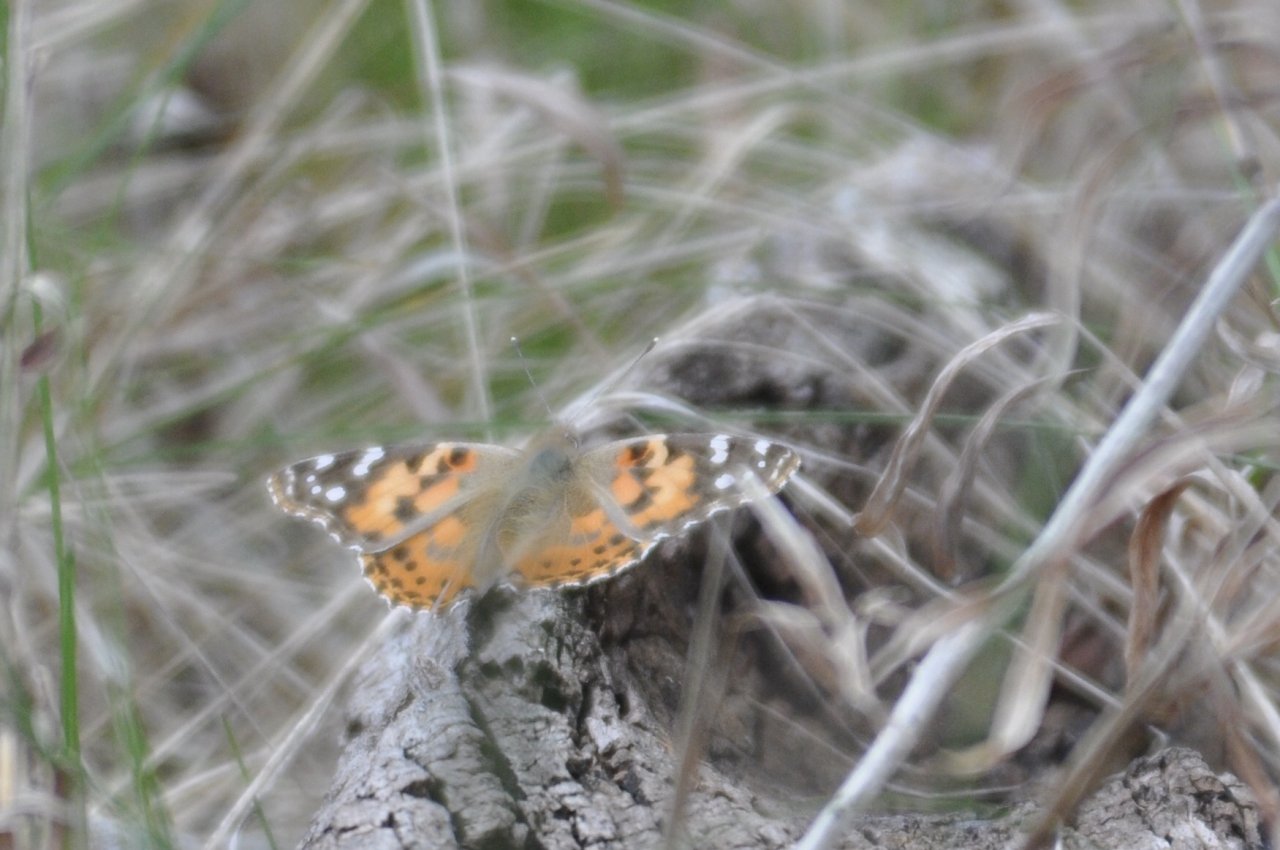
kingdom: Animalia
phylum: Arthropoda
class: Insecta
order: Lepidoptera
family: Nymphalidae
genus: Vanessa
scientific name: Vanessa cardui
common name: Painted Lady
